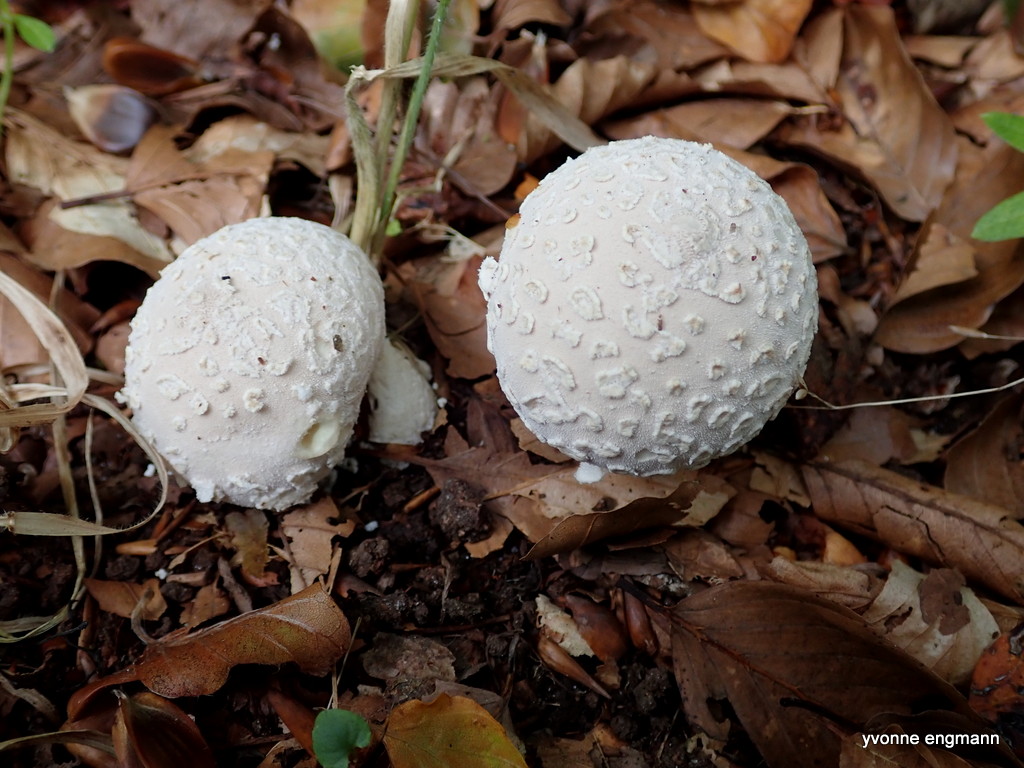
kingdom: Fungi
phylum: Basidiomycota
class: Agaricomycetes
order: Agaricales
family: Lycoperdaceae
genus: Lycoperdon
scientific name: Lycoperdon mammiforme
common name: rosa støvbold
